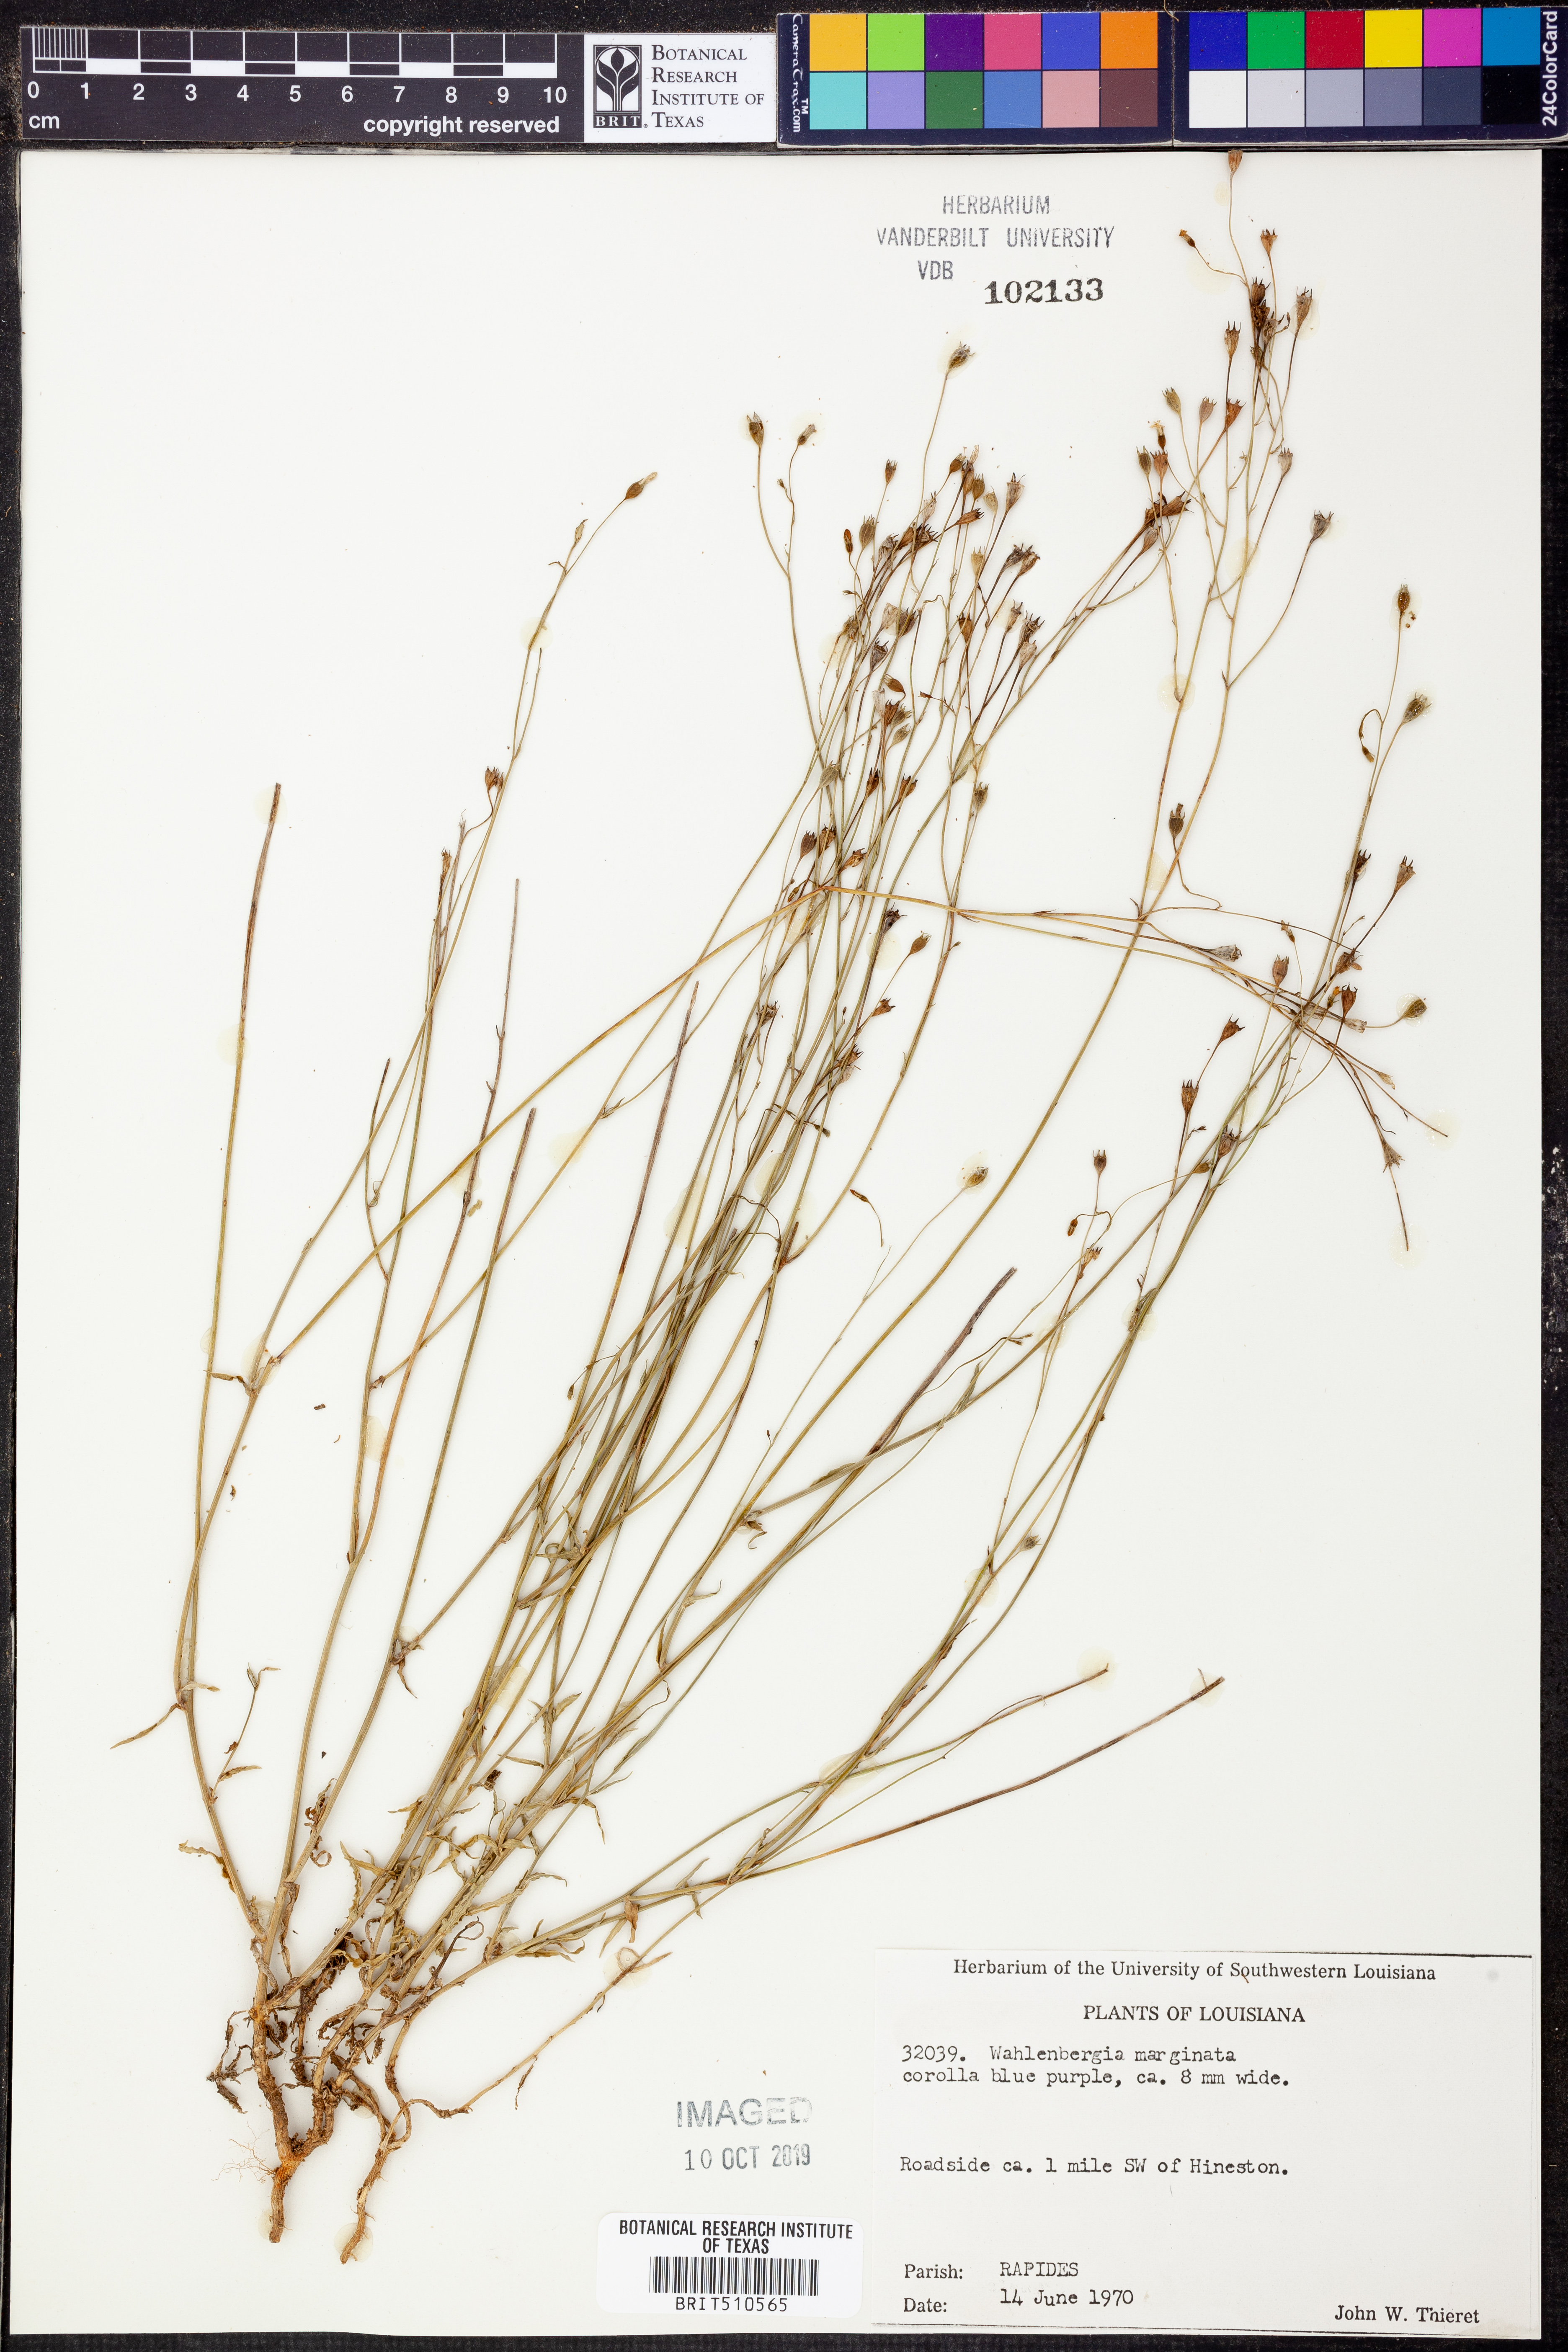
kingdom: Plantae
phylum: Tracheophyta
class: Magnoliopsida
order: Asterales
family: Campanulaceae
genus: Wahlenbergia
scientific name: Wahlenbergia marginata
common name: Southern rockbell
